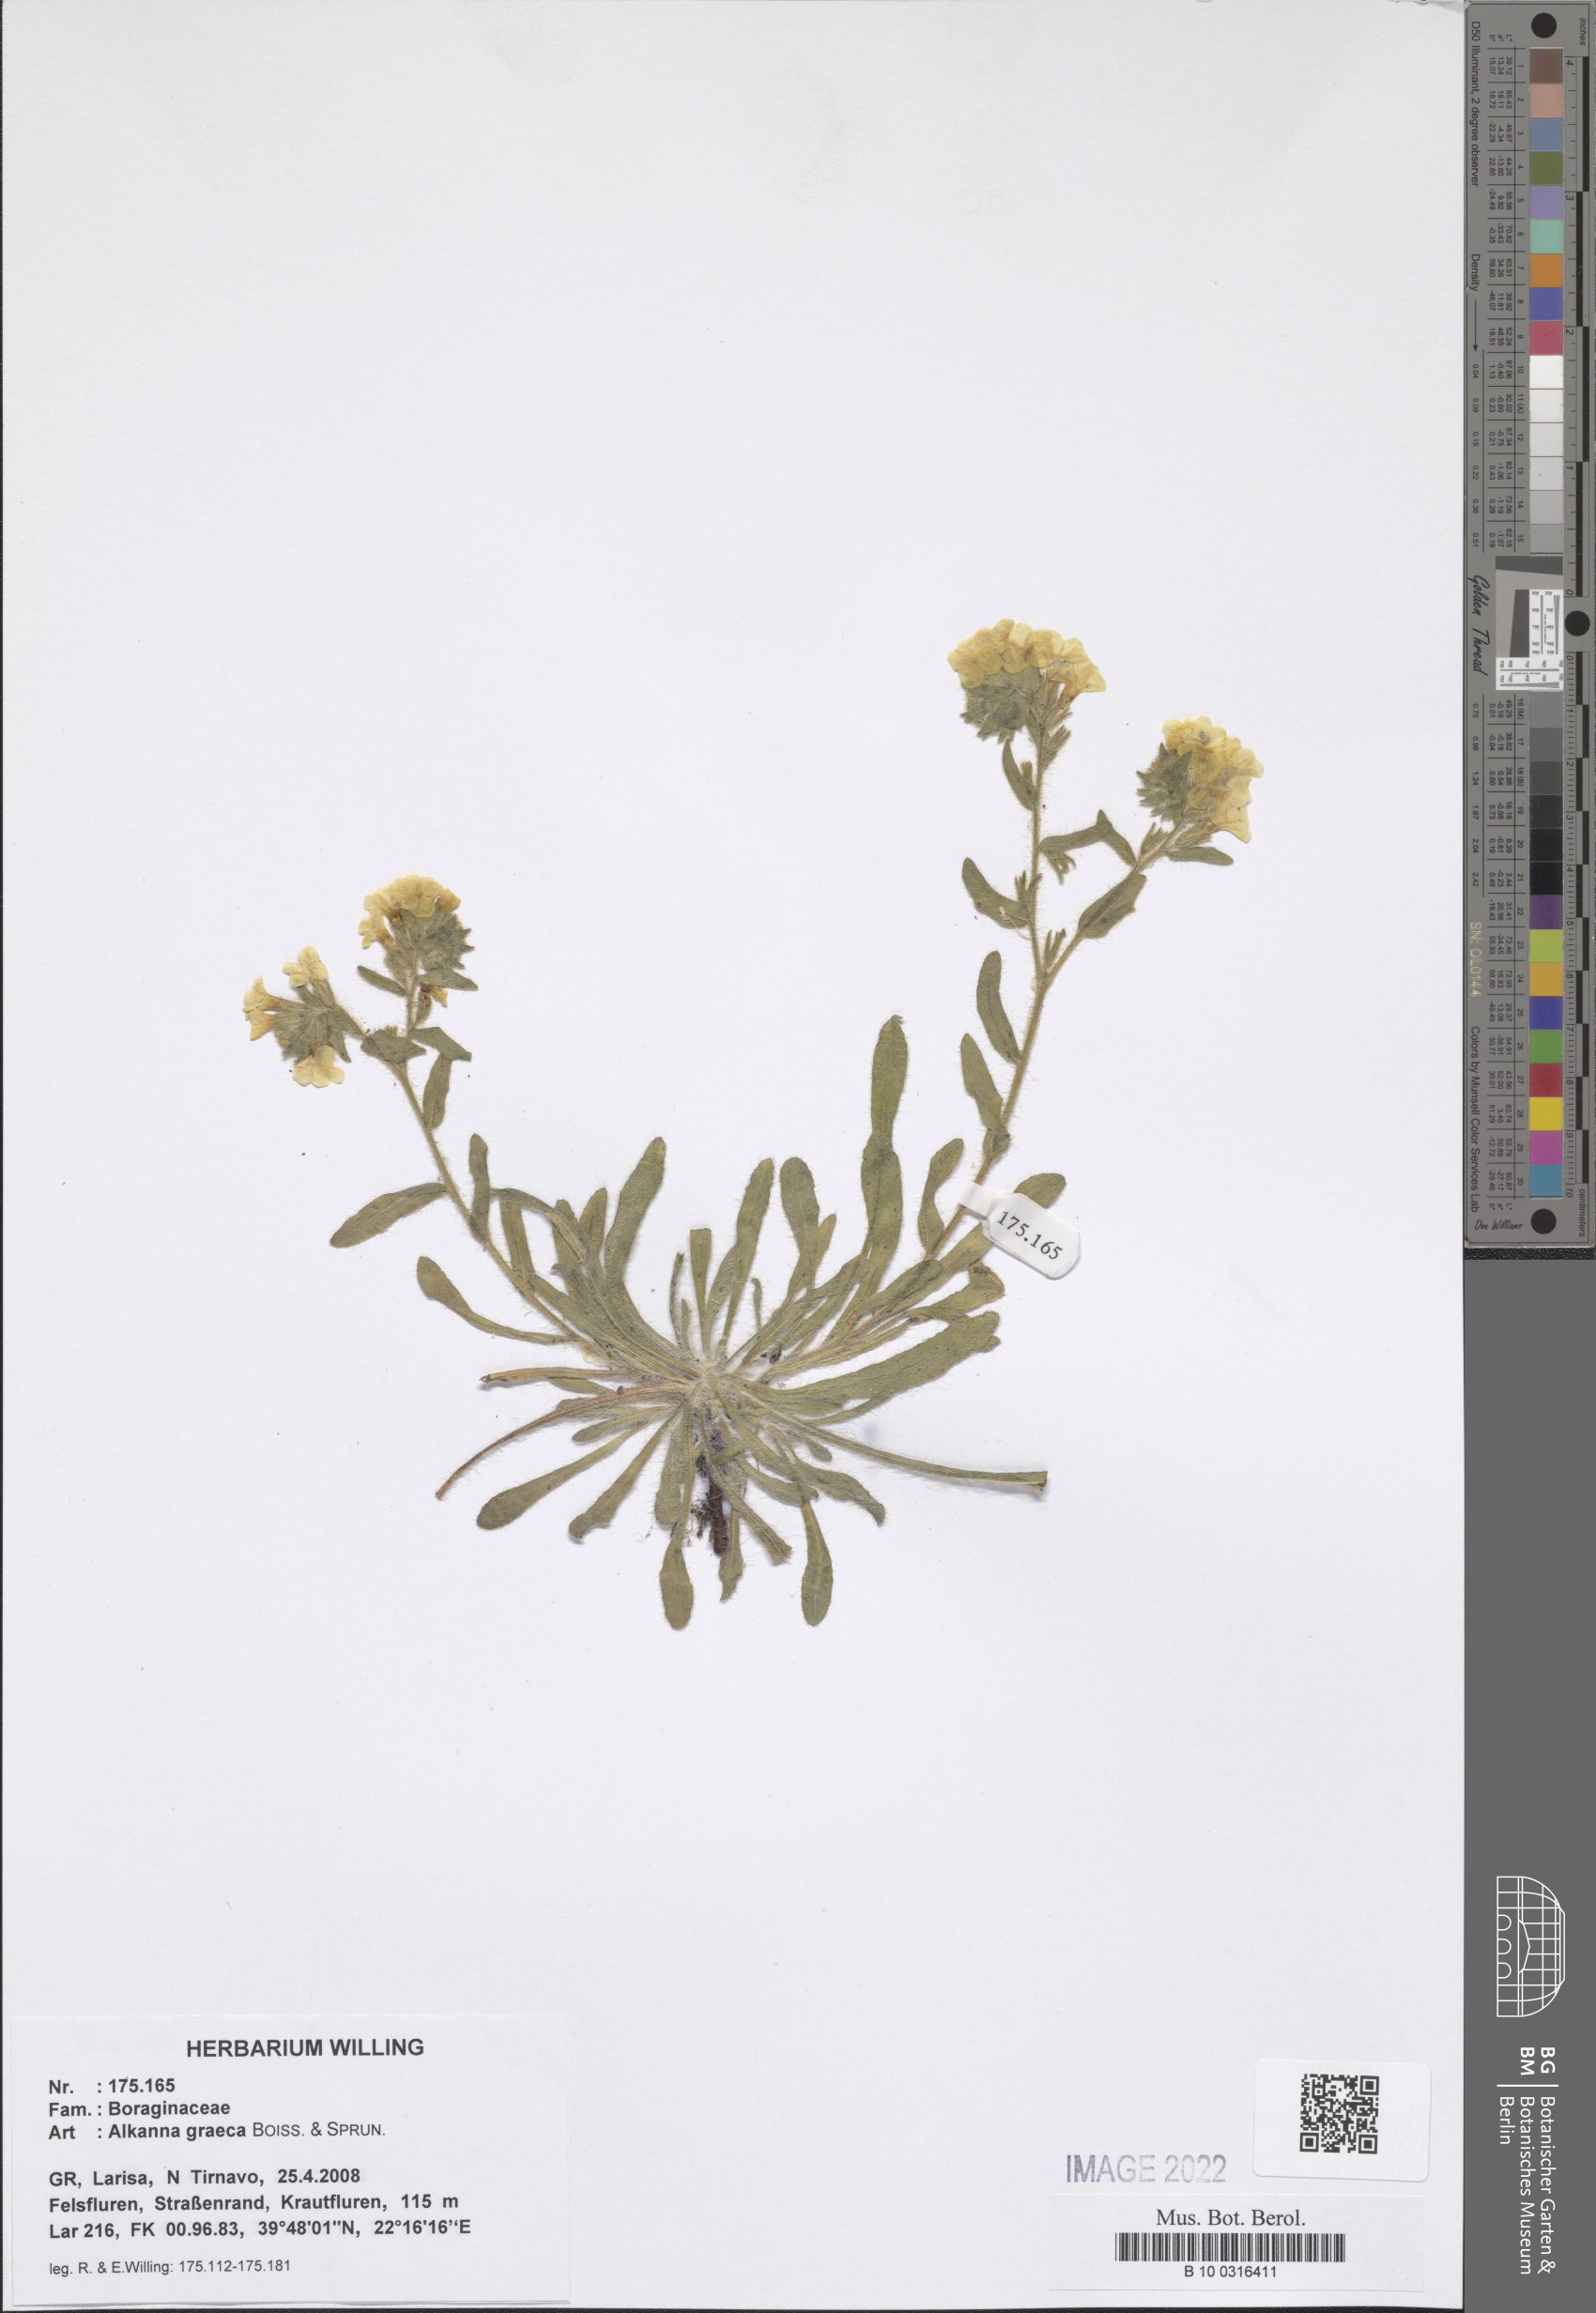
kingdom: Plantae
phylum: Tracheophyta
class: Magnoliopsida
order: Boraginales
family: Boraginaceae
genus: Alkanna
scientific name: Alkanna graeca
